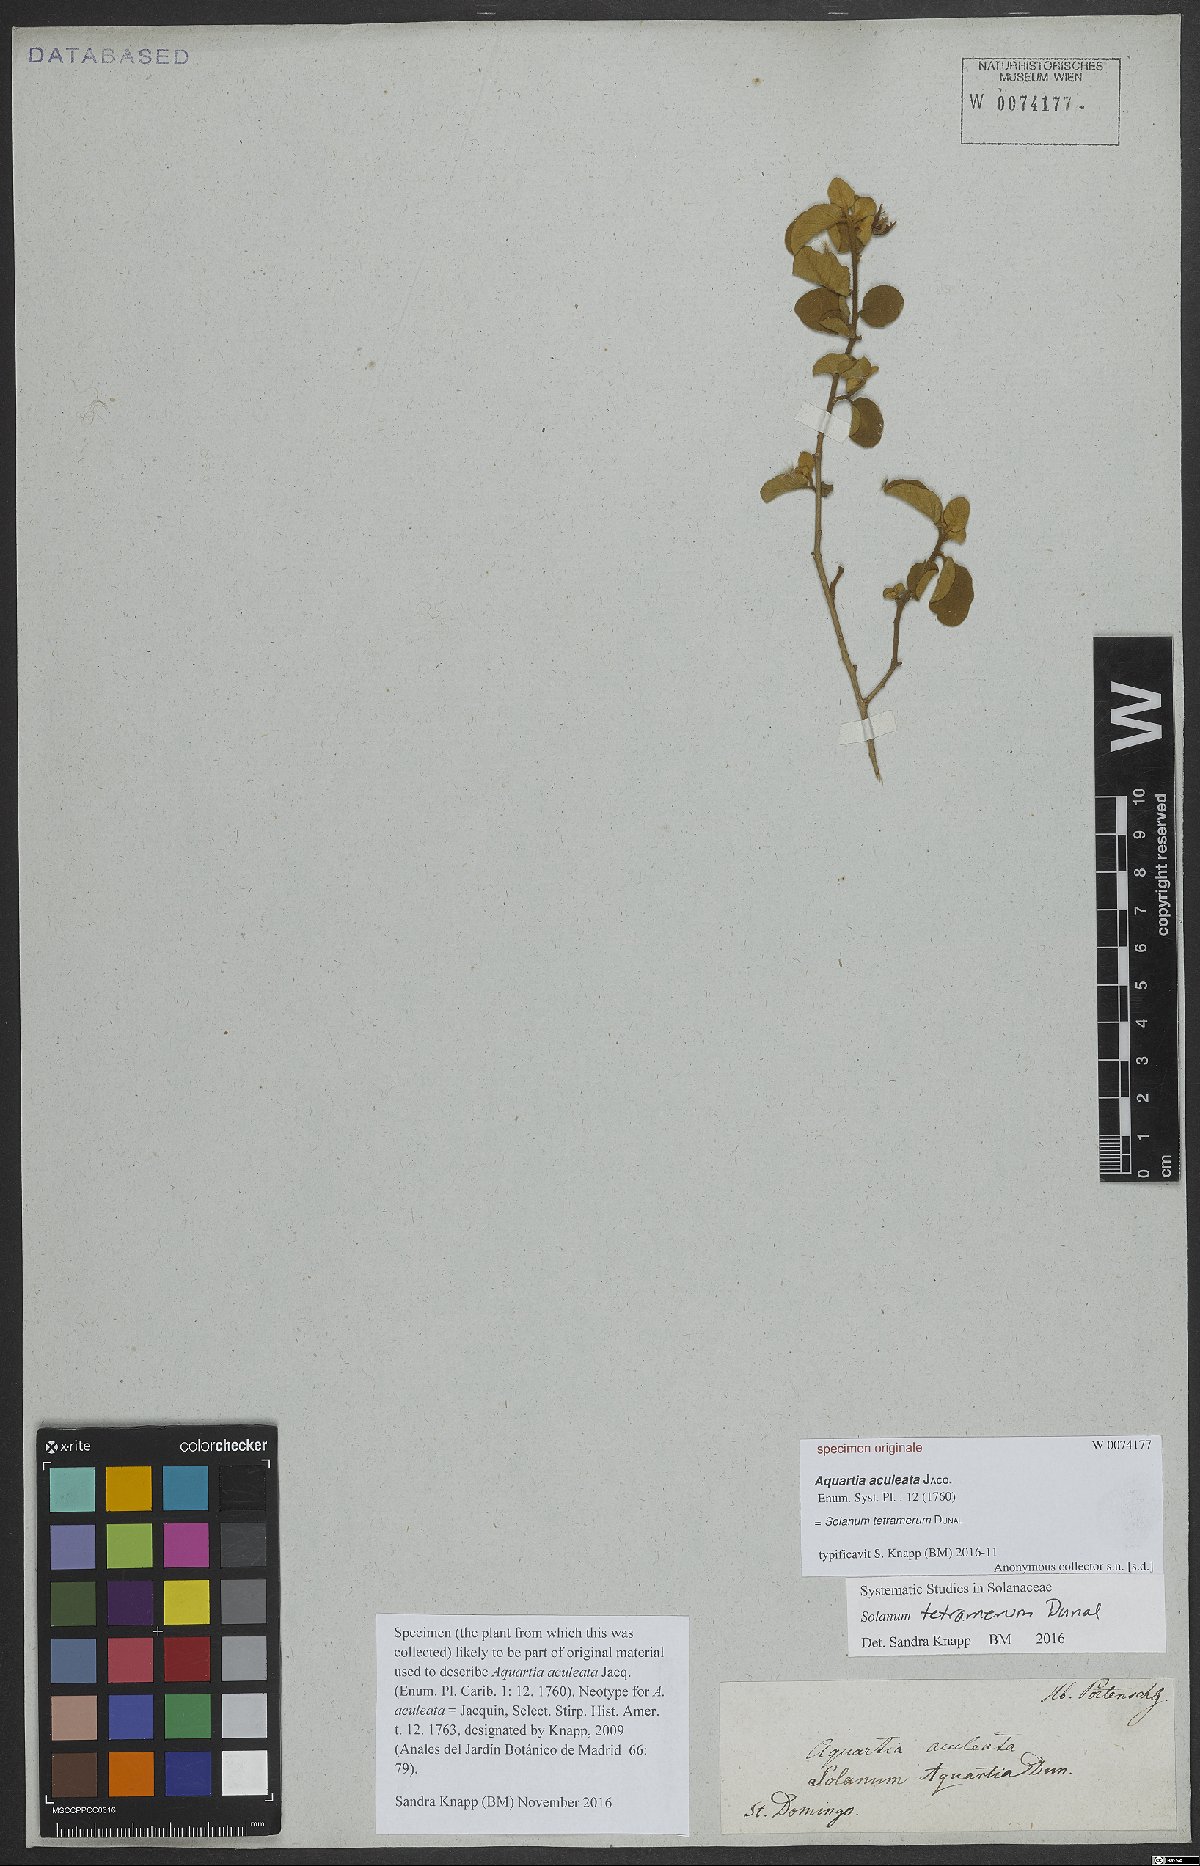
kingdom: Plantae
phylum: Tracheophyta
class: Magnoliopsida
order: Solanales
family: Solanaceae
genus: Solanum
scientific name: Solanum tetramerum
